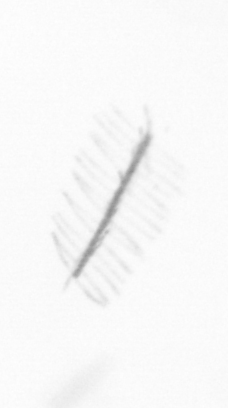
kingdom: Chromista
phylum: Ochrophyta
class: Bacillariophyceae
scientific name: Bacillariophyceae
